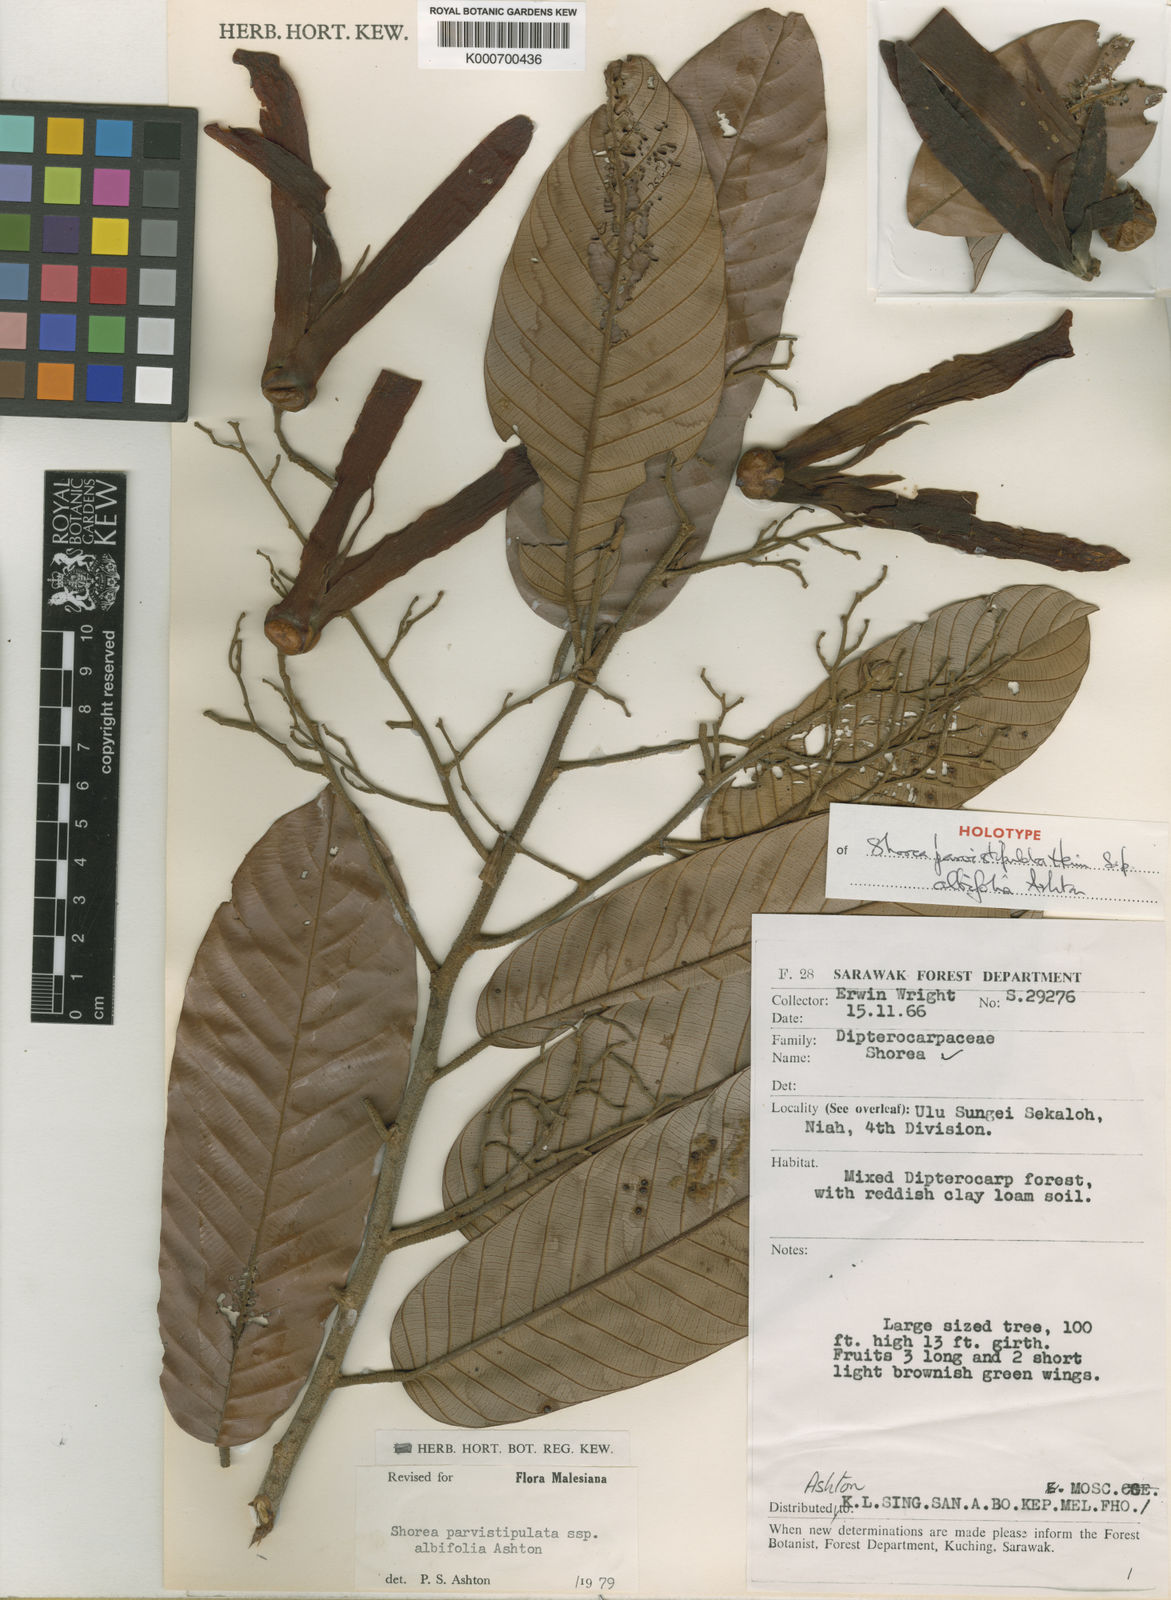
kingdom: Plantae
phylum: Tracheophyta
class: Magnoliopsida
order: Malvales
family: Dipterocarpaceae
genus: Shorea
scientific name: Shorea parvistipulata
